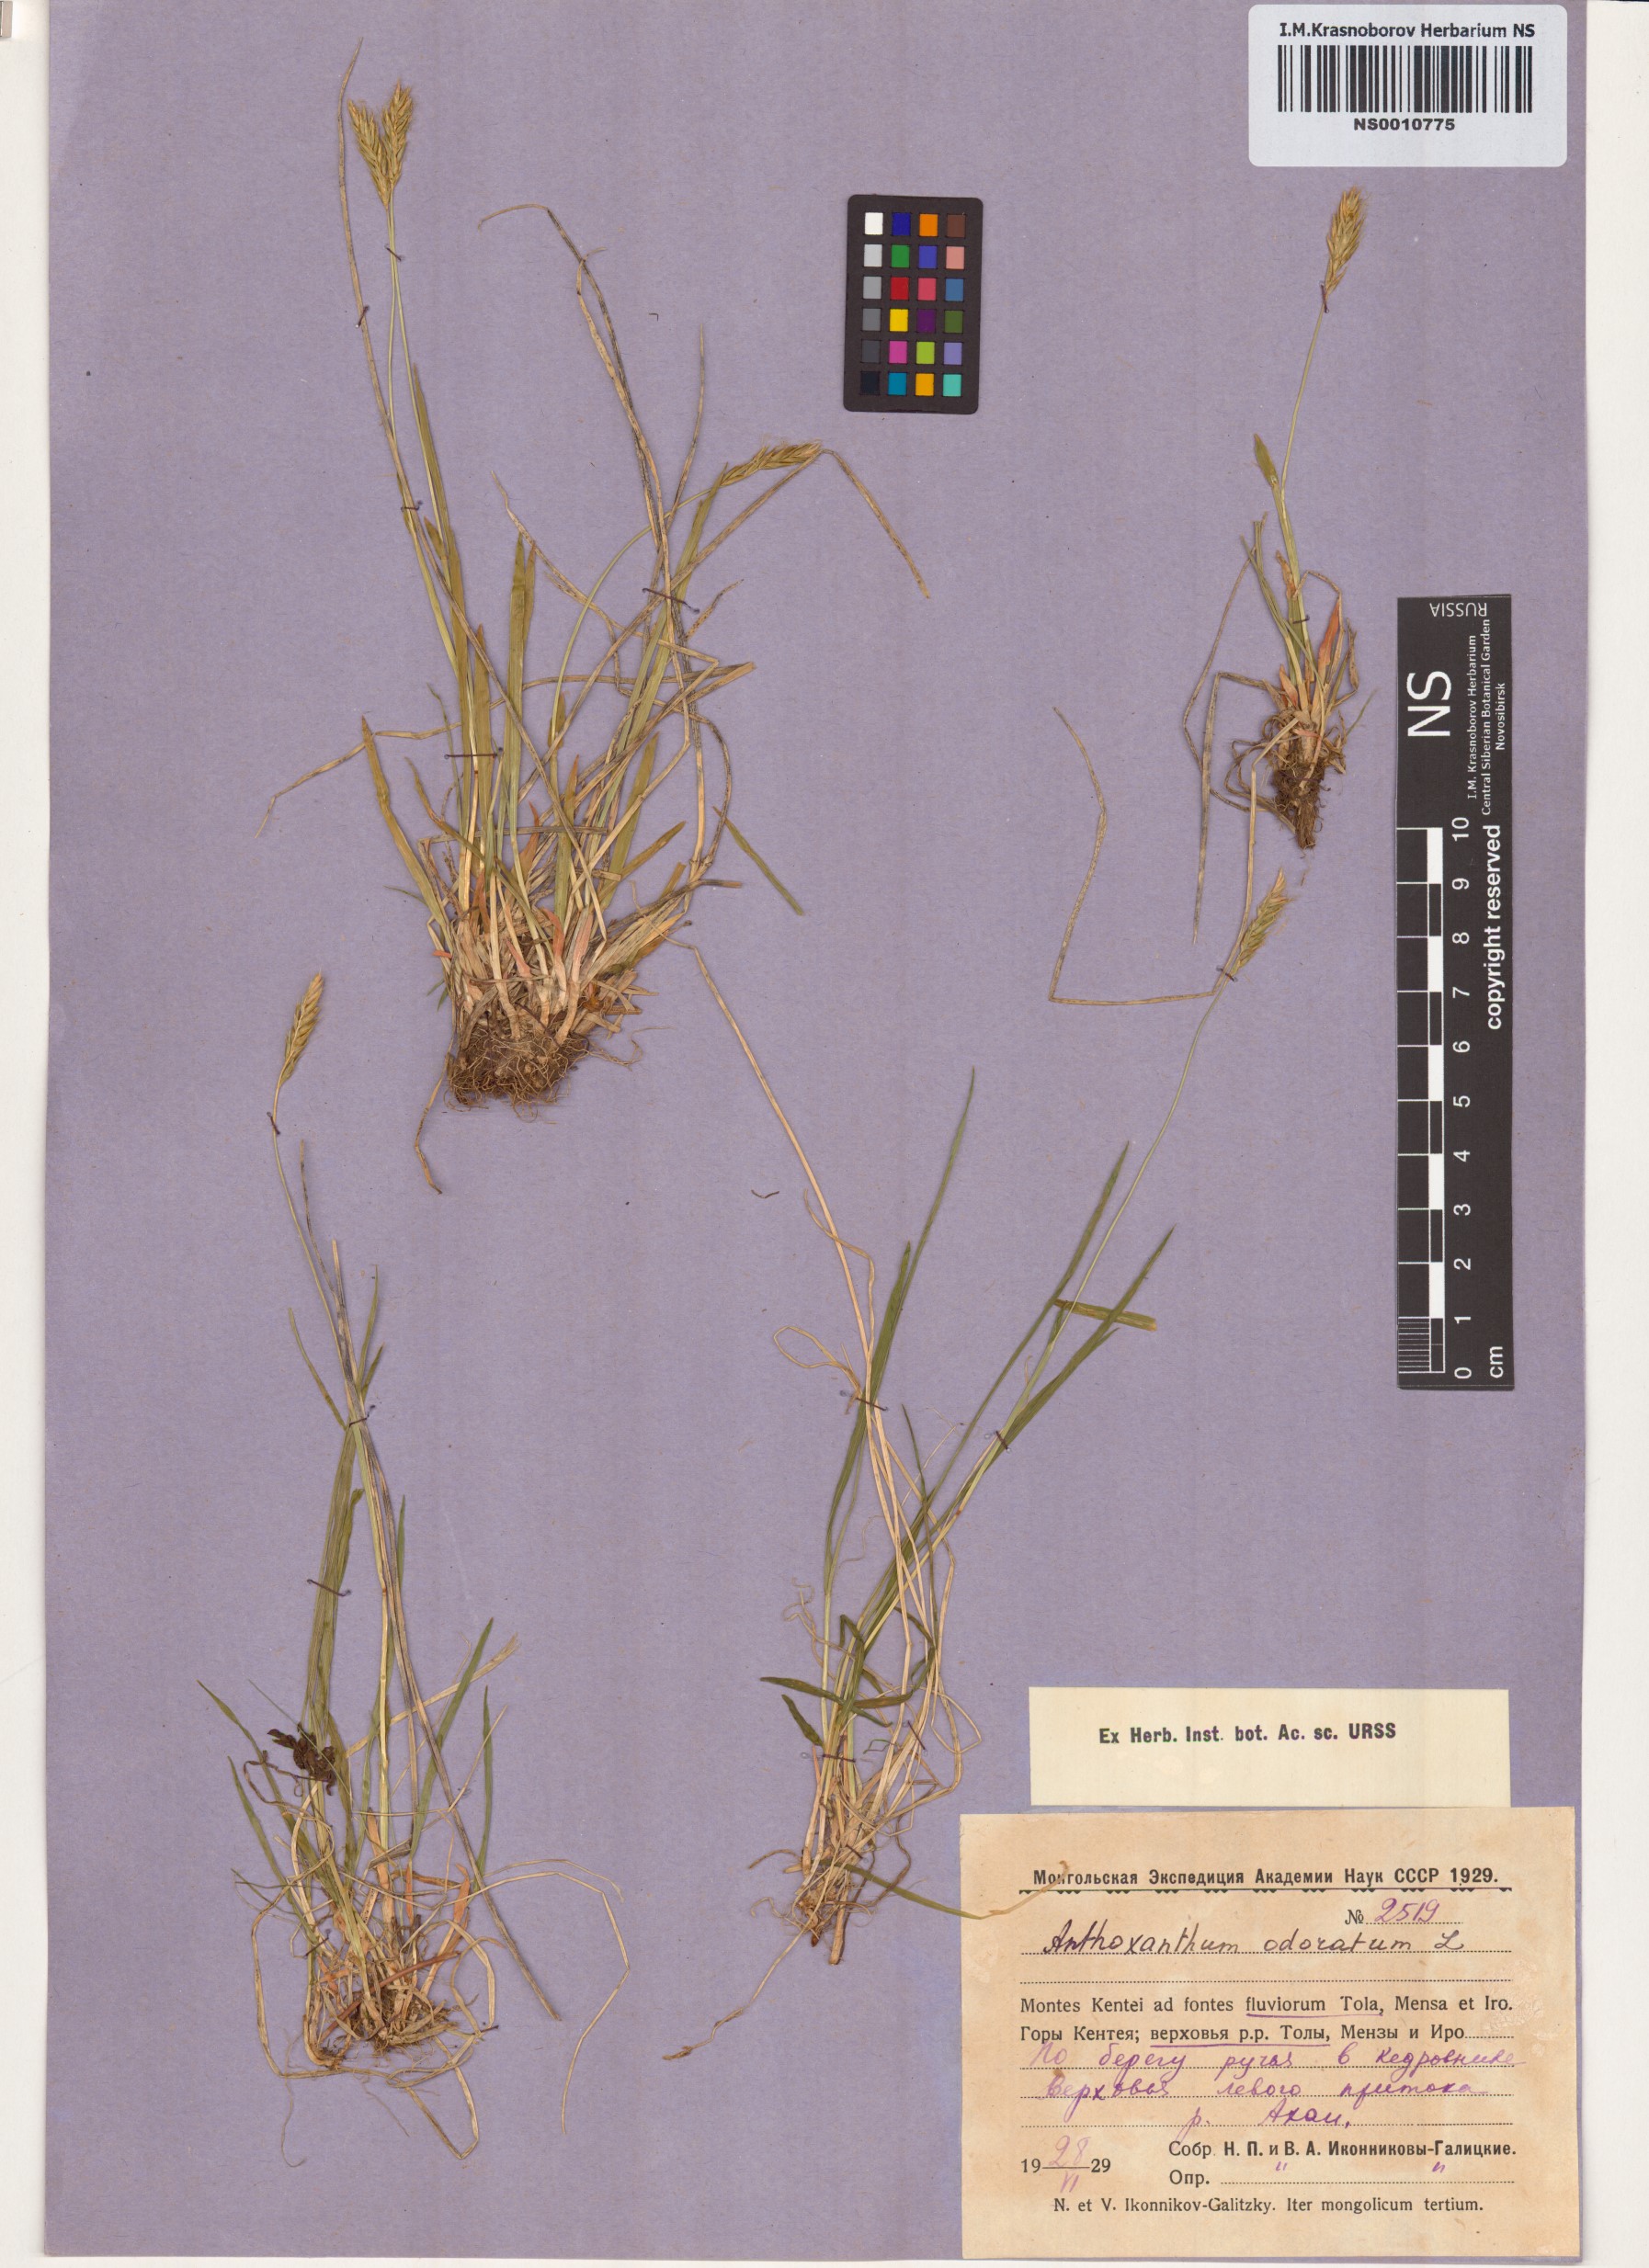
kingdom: Plantae
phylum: Tracheophyta
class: Liliopsida
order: Poales
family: Poaceae
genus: Anthoxanthum
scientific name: Anthoxanthum odoratum
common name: Sweet vernalgrass
